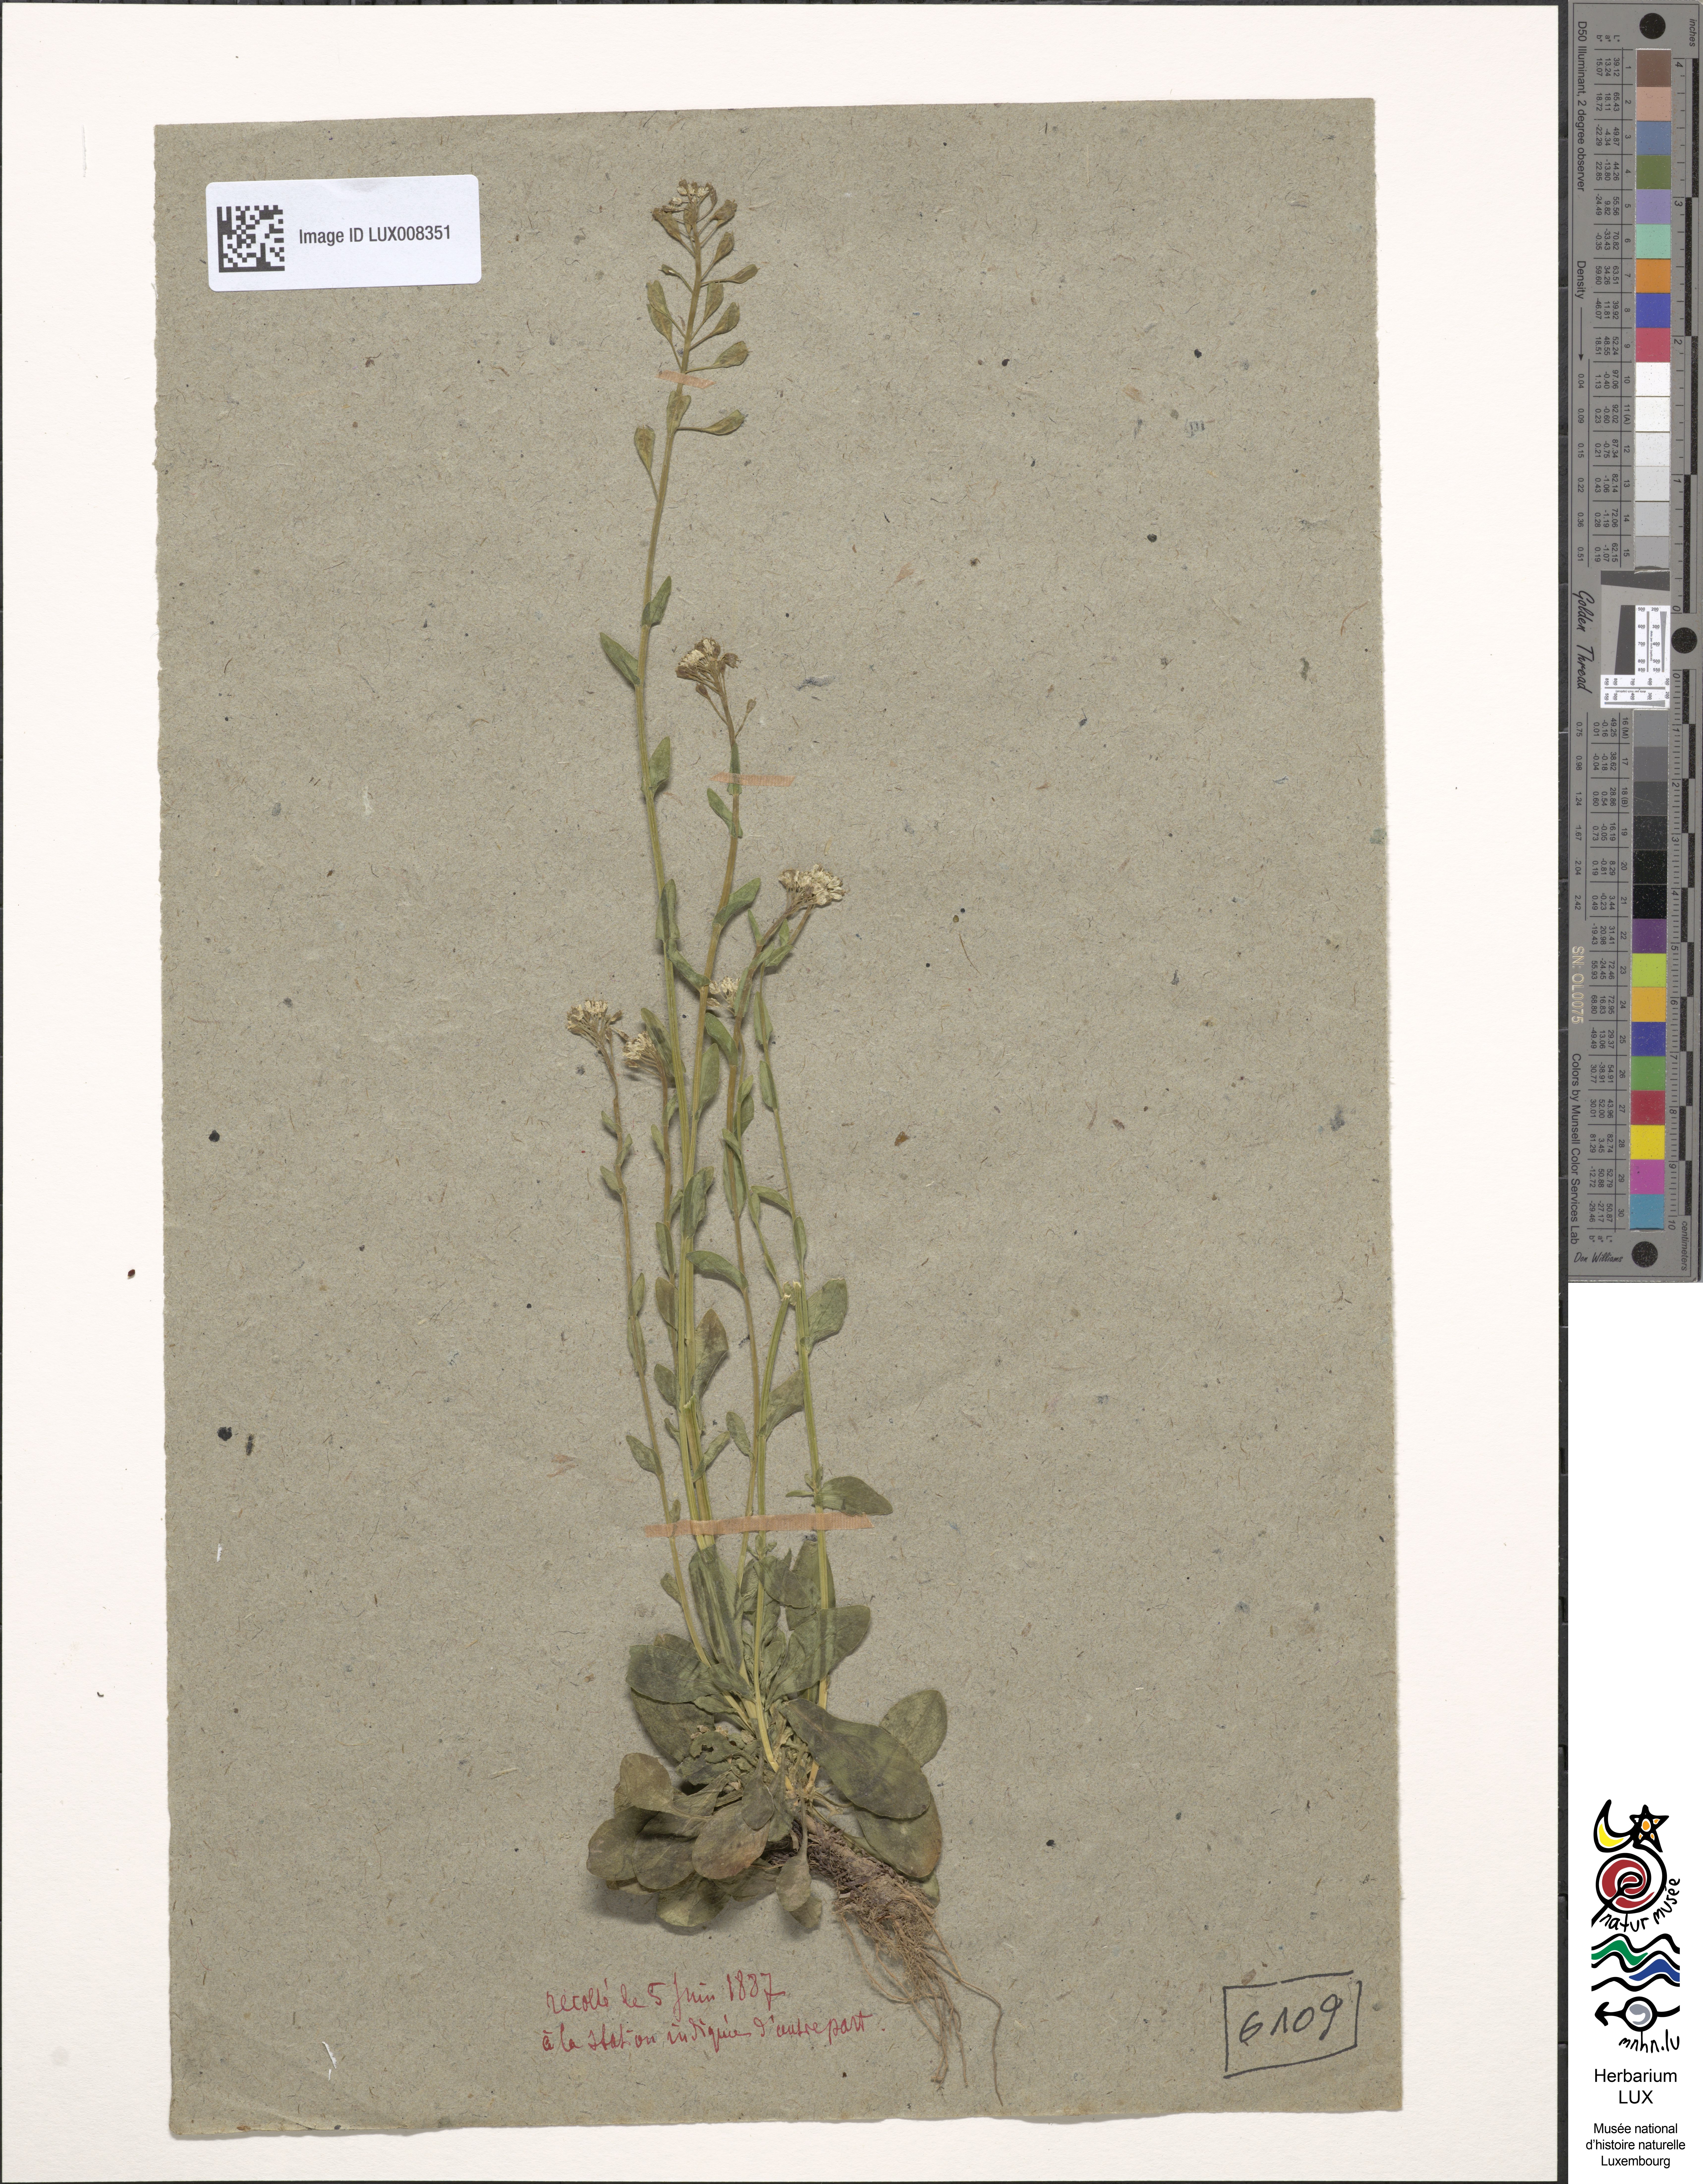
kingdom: Plantae
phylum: Tracheophyta
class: Magnoliopsida
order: Brassicales
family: Brassicaceae
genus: Noccaea
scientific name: Noccaea caerulescens
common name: Alpine pennycress
